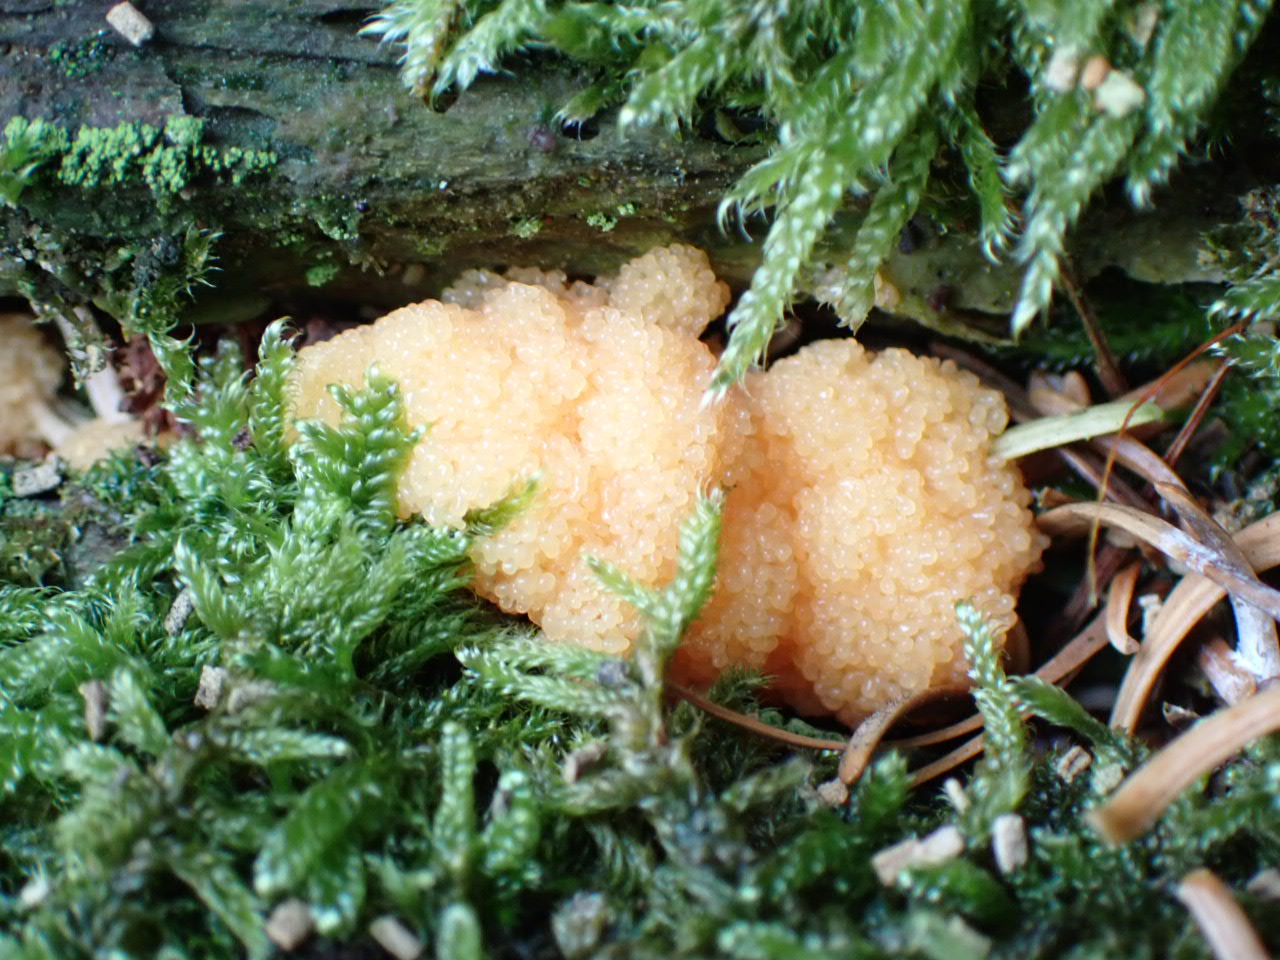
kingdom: Protozoa
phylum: Mycetozoa
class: Myxomycetes
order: Cribrariales
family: Tubiferaceae
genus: Tubifera
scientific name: Tubifera ferruginosa
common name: kanel-støvrør
